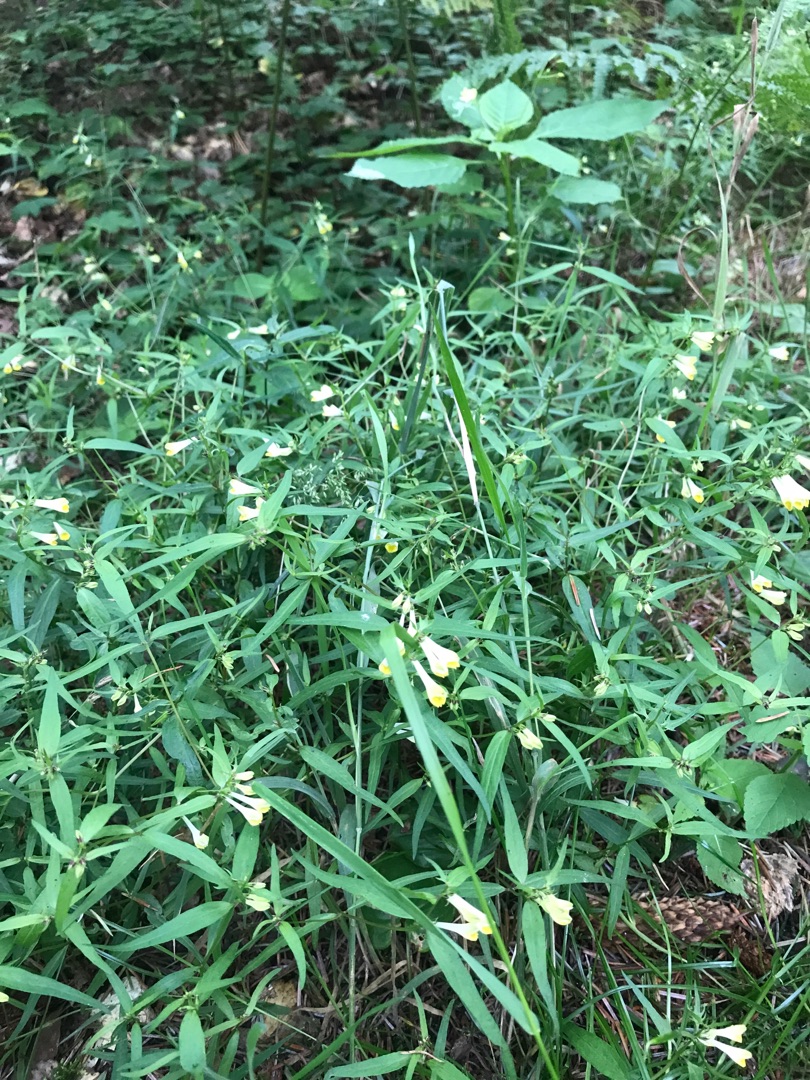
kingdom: Plantae
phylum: Tracheophyta
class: Magnoliopsida
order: Lamiales
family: Orobanchaceae
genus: Melampyrum
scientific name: Melampyrum pratense
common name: Almindelig kohvede
